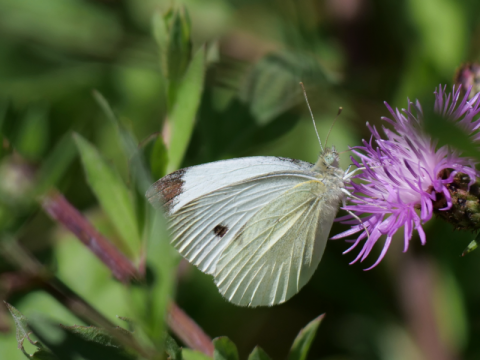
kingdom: Animalia
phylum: Arthropoda
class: Insecta
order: Lepidoptera
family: Pieridae
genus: Pieris
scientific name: Pieris rapae
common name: Cabbage White
